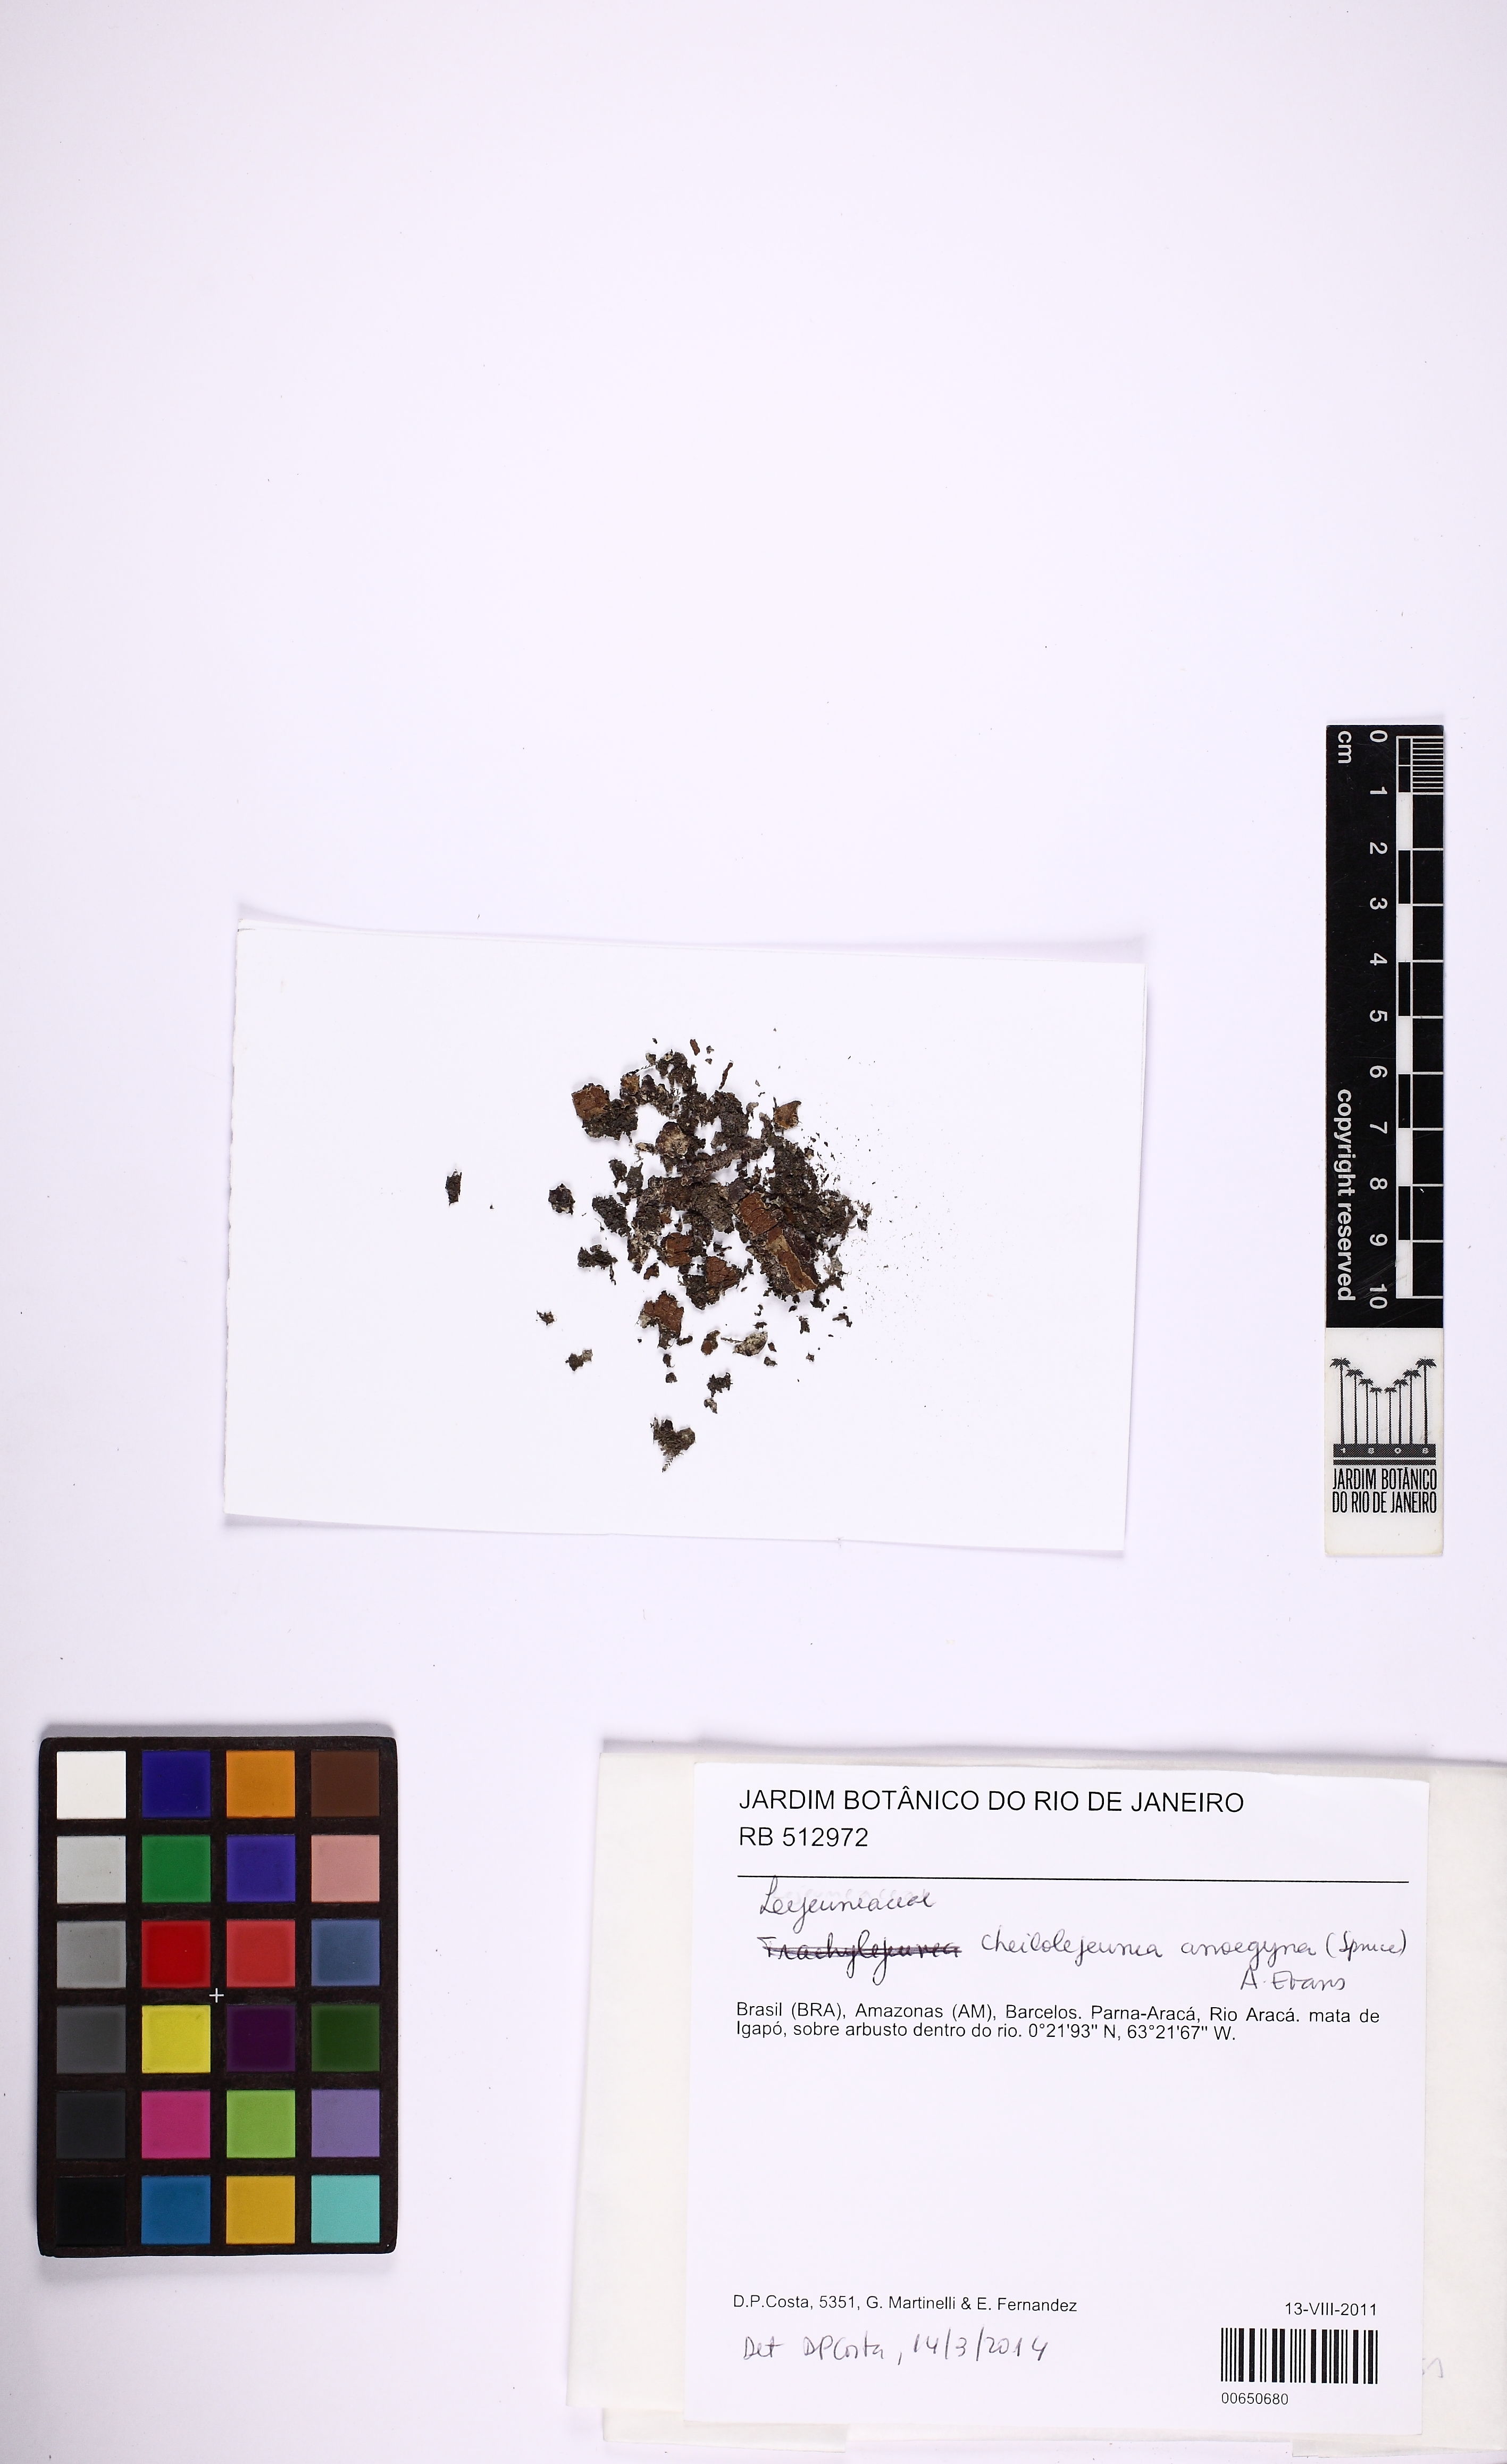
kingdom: Plantae
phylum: Marchantiophyta
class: Jungermanniopsida
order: Porellales
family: Lejeuneaceae
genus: Cheilolejeunea
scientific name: Cheilolejeunea aneogyna
